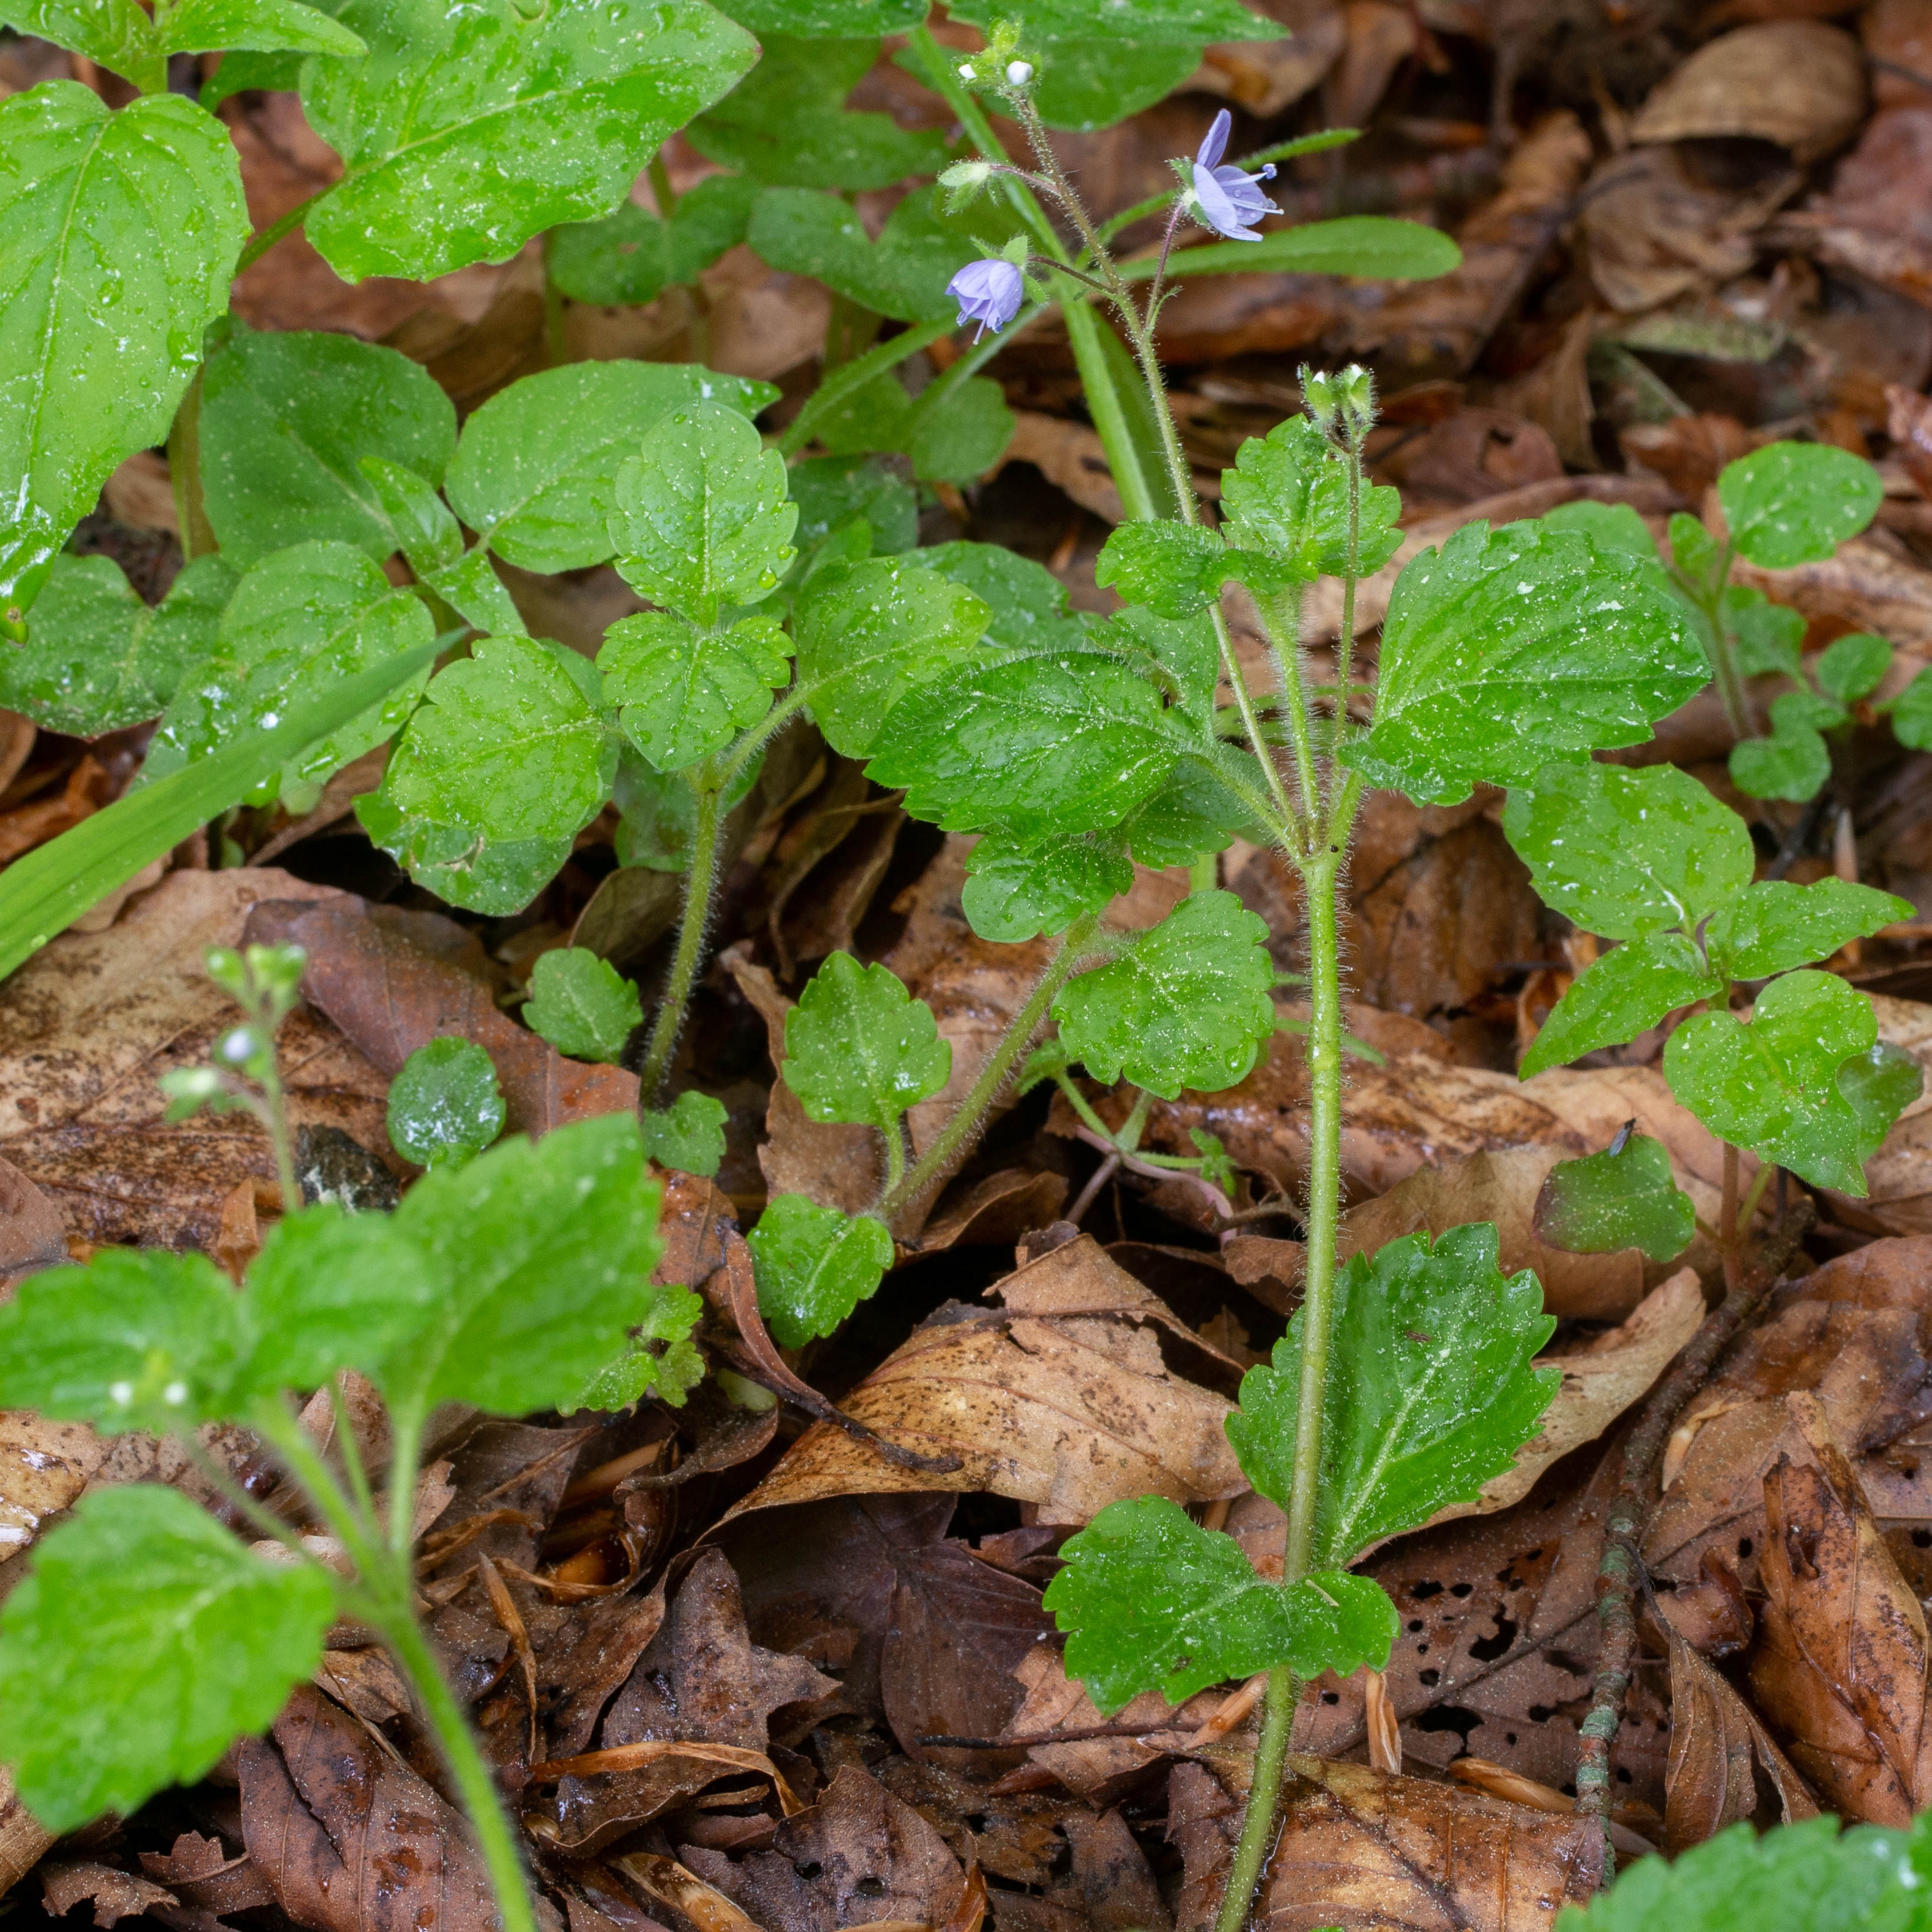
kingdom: Plantae
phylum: Tracheophyta
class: Magnoliopsida
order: Lamiales
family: Plantaginaceae
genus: Veronica
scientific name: Veronica montana
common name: Bjerg-ærenpris
